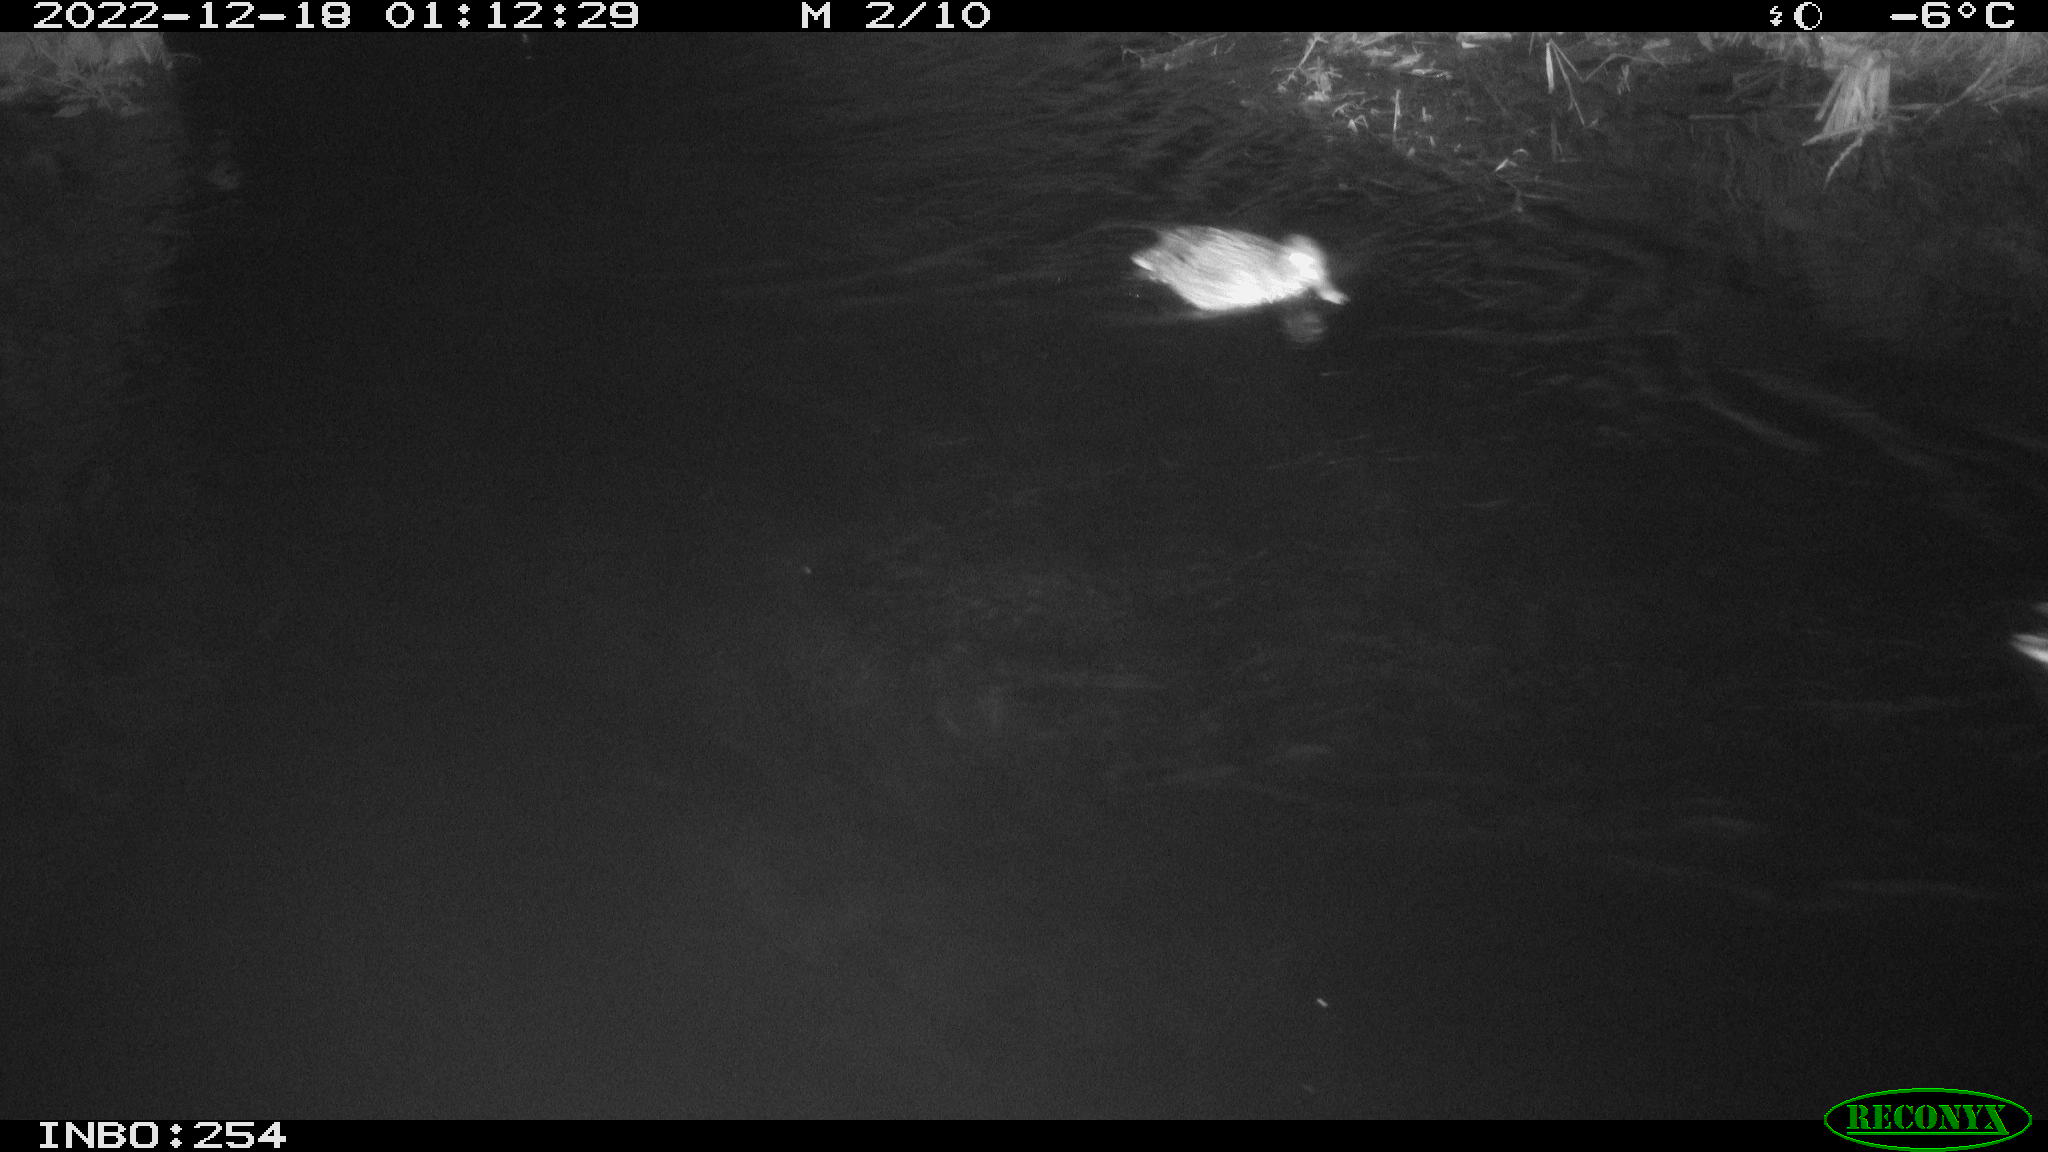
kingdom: Animalia
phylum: Chordata
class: Aves
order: Anseriformes
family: Anatidae
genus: Anas
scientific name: Anas
